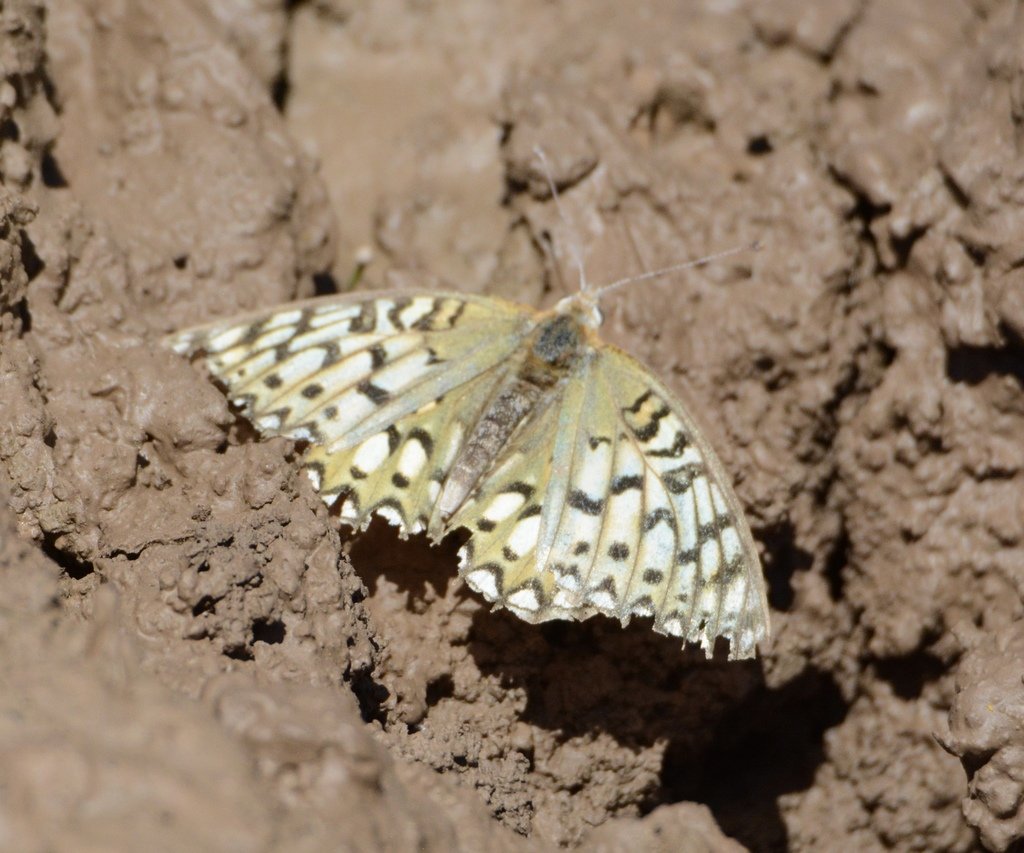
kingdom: Animalia
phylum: Arthropoda
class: Insecta
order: Lepidoptera
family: Nymphalidae
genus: Speyeria
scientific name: Speyeria callippe
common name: Callippe Fritillary
